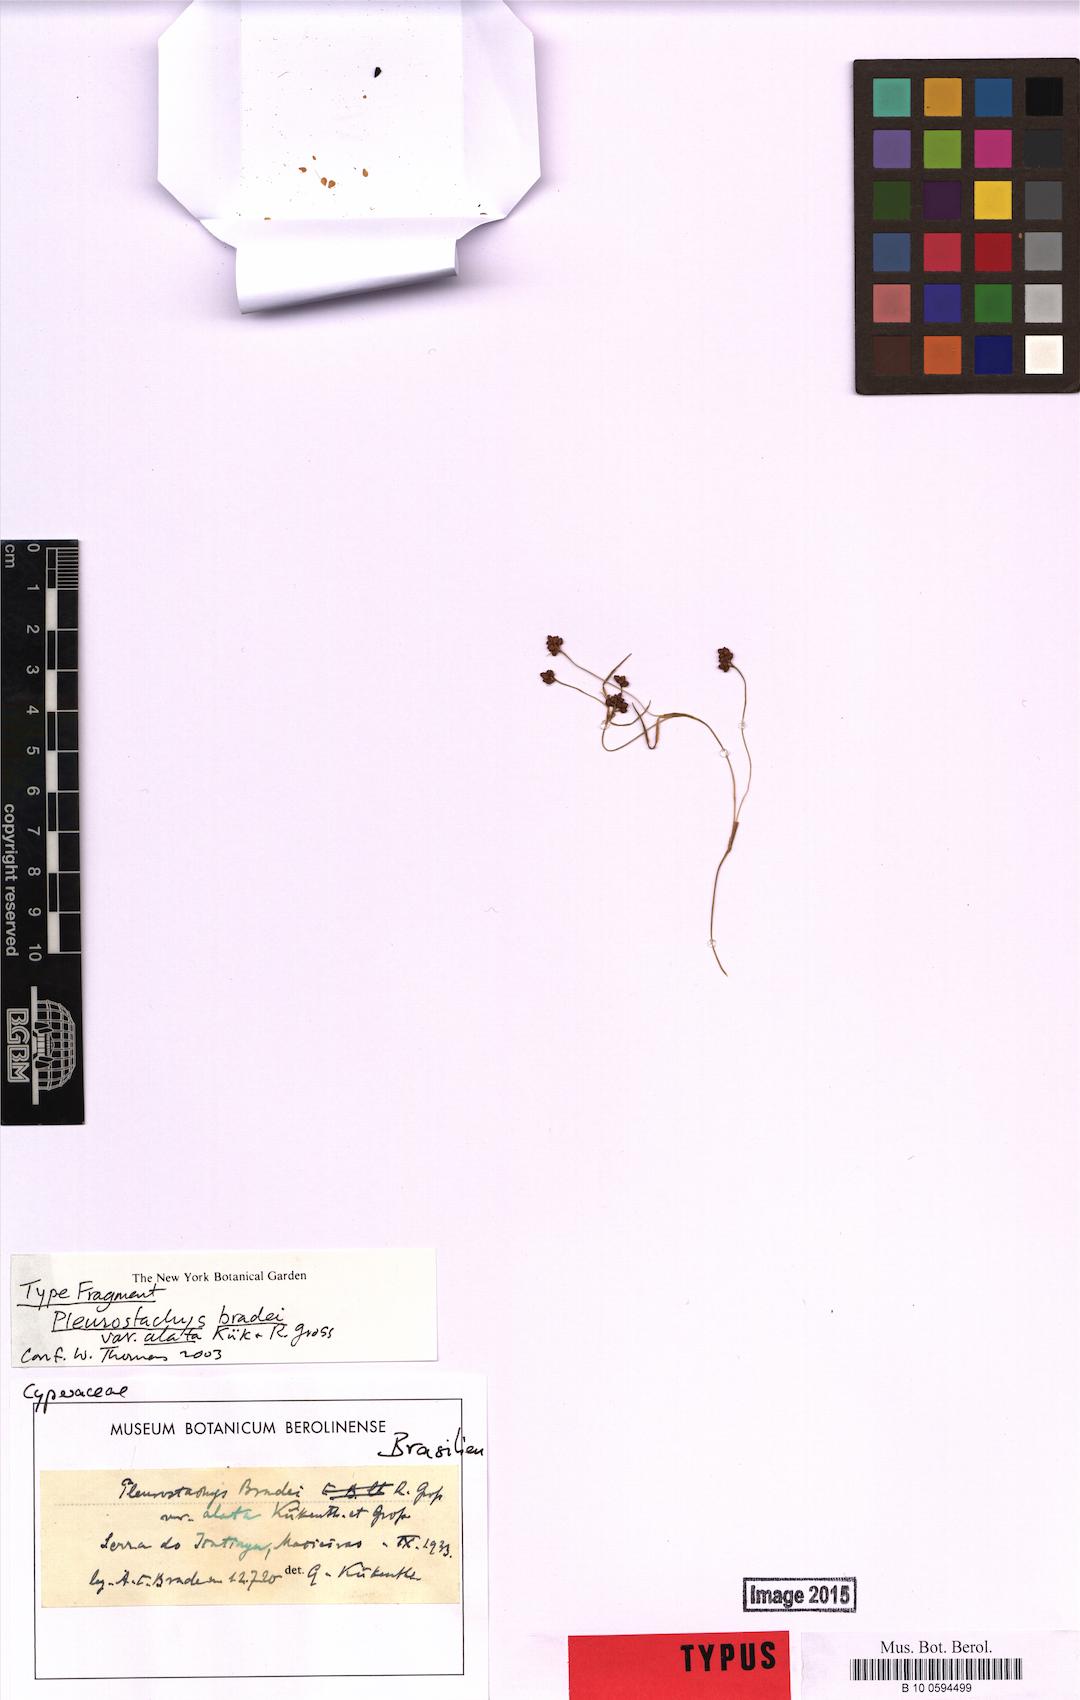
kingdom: Plantae
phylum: Tracheophyta
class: Liliopsida
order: Poales
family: Cyperaceae
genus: Rhynchospora
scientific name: Rhynchospora bradei
